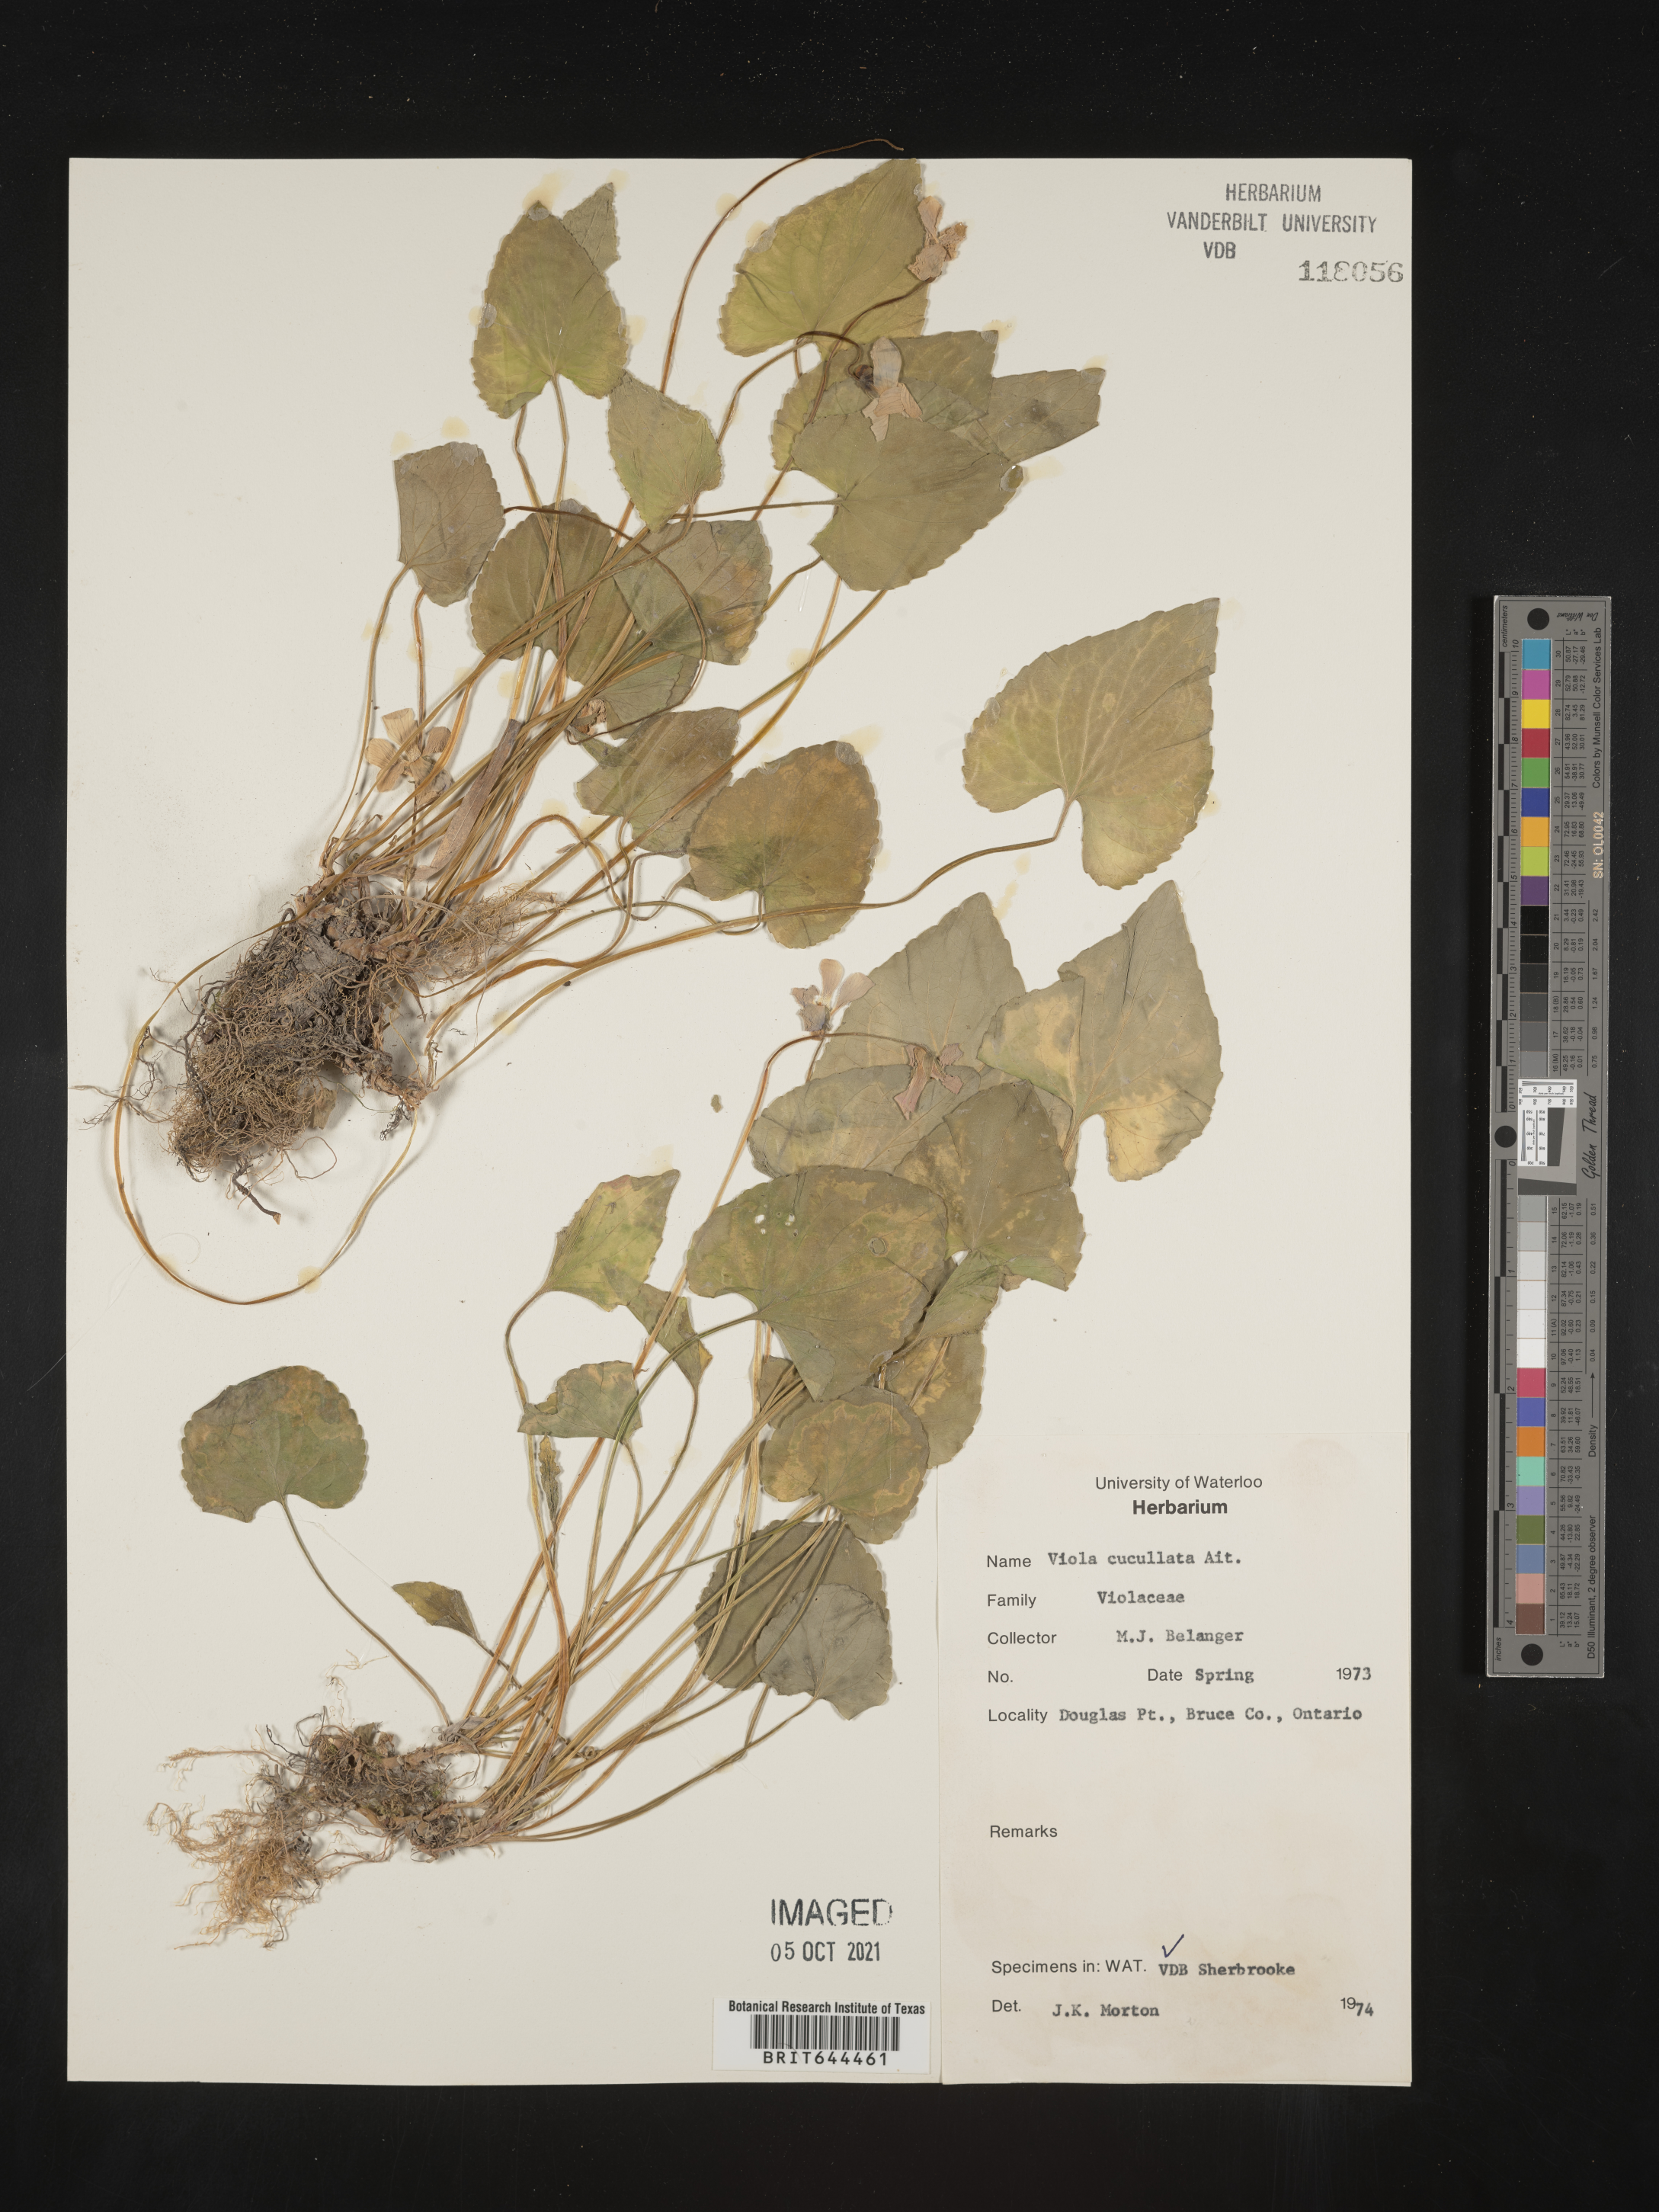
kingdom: Plantae
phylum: Tracheophyta
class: Magnoliopsida
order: Malpighiales
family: Violaceae
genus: Viola
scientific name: Viola
